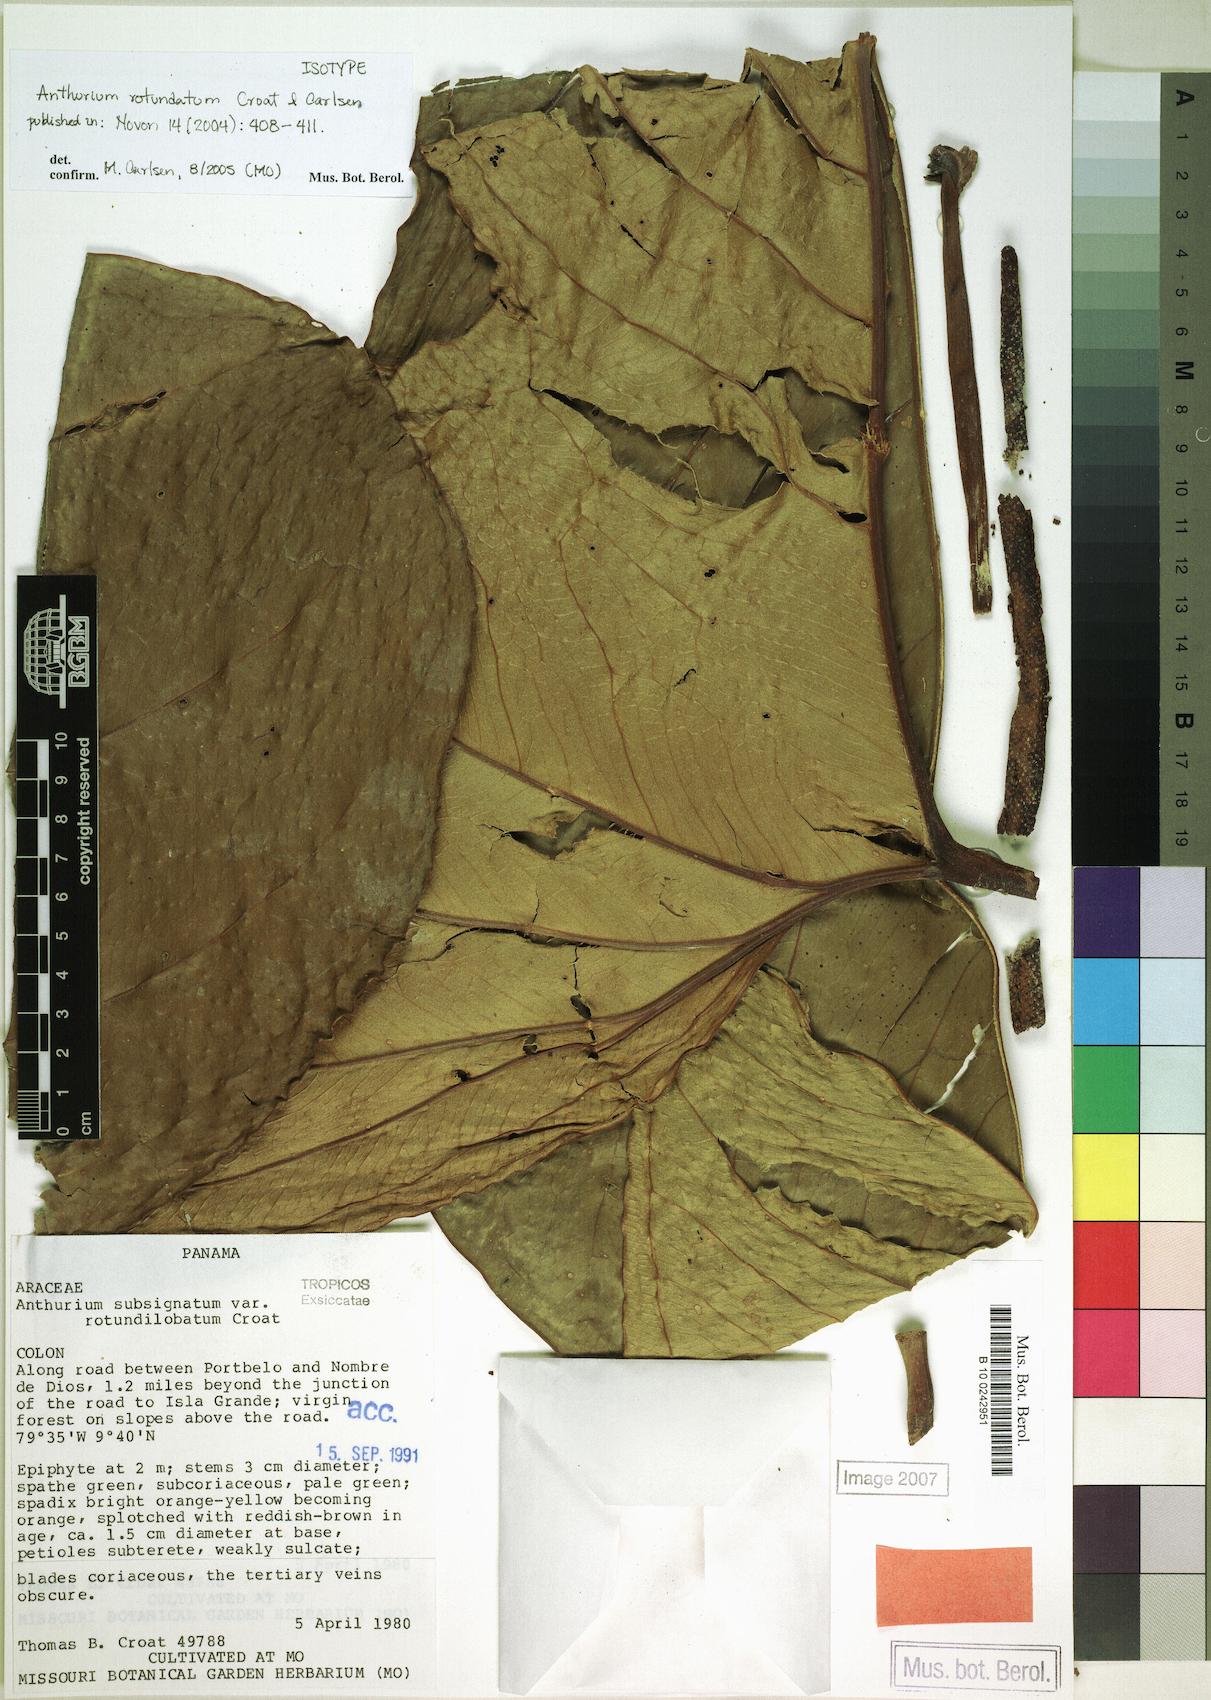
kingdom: Plantae
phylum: Tracheophyta
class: Liliopsida
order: Alismatales
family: Araceae
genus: Anthurium
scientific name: Anthurium rotundatum
